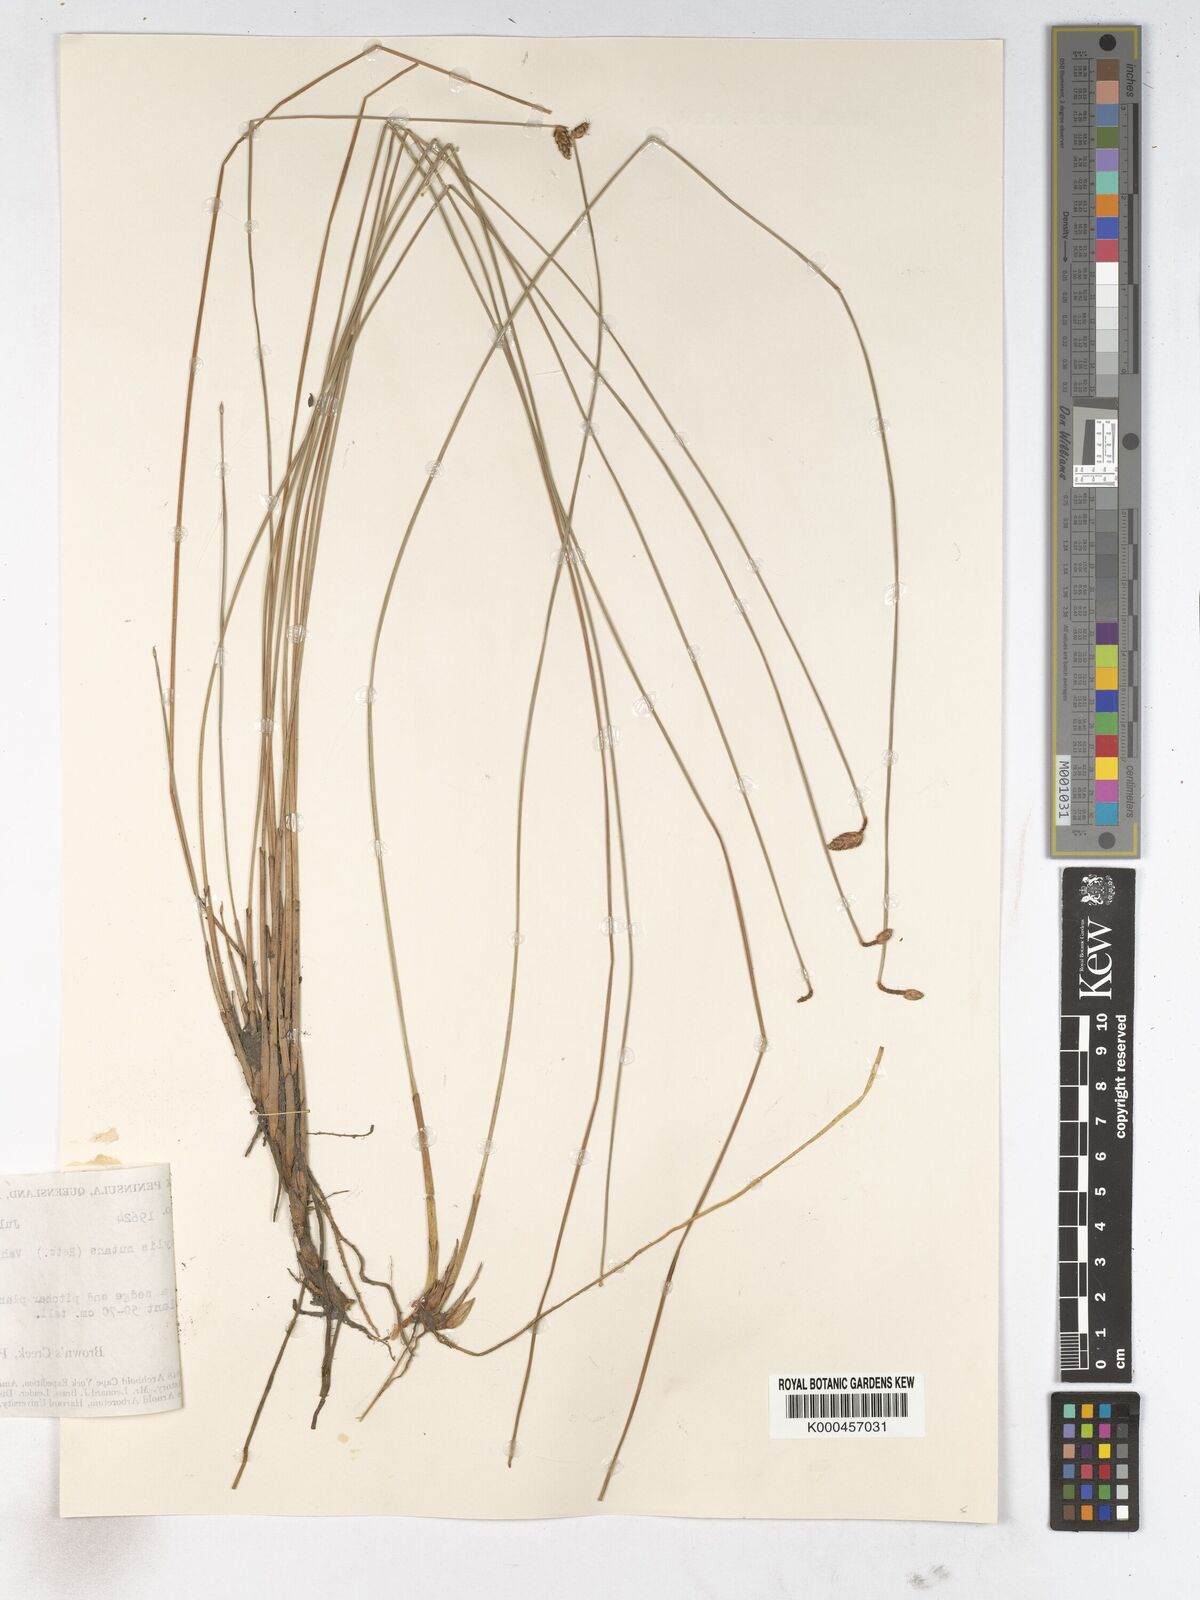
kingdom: Plantae
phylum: Tracheophyta
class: Liliopsida
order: Poales
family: Cyperaceae
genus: Fimbristylis
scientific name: Fimbristylis nutans
